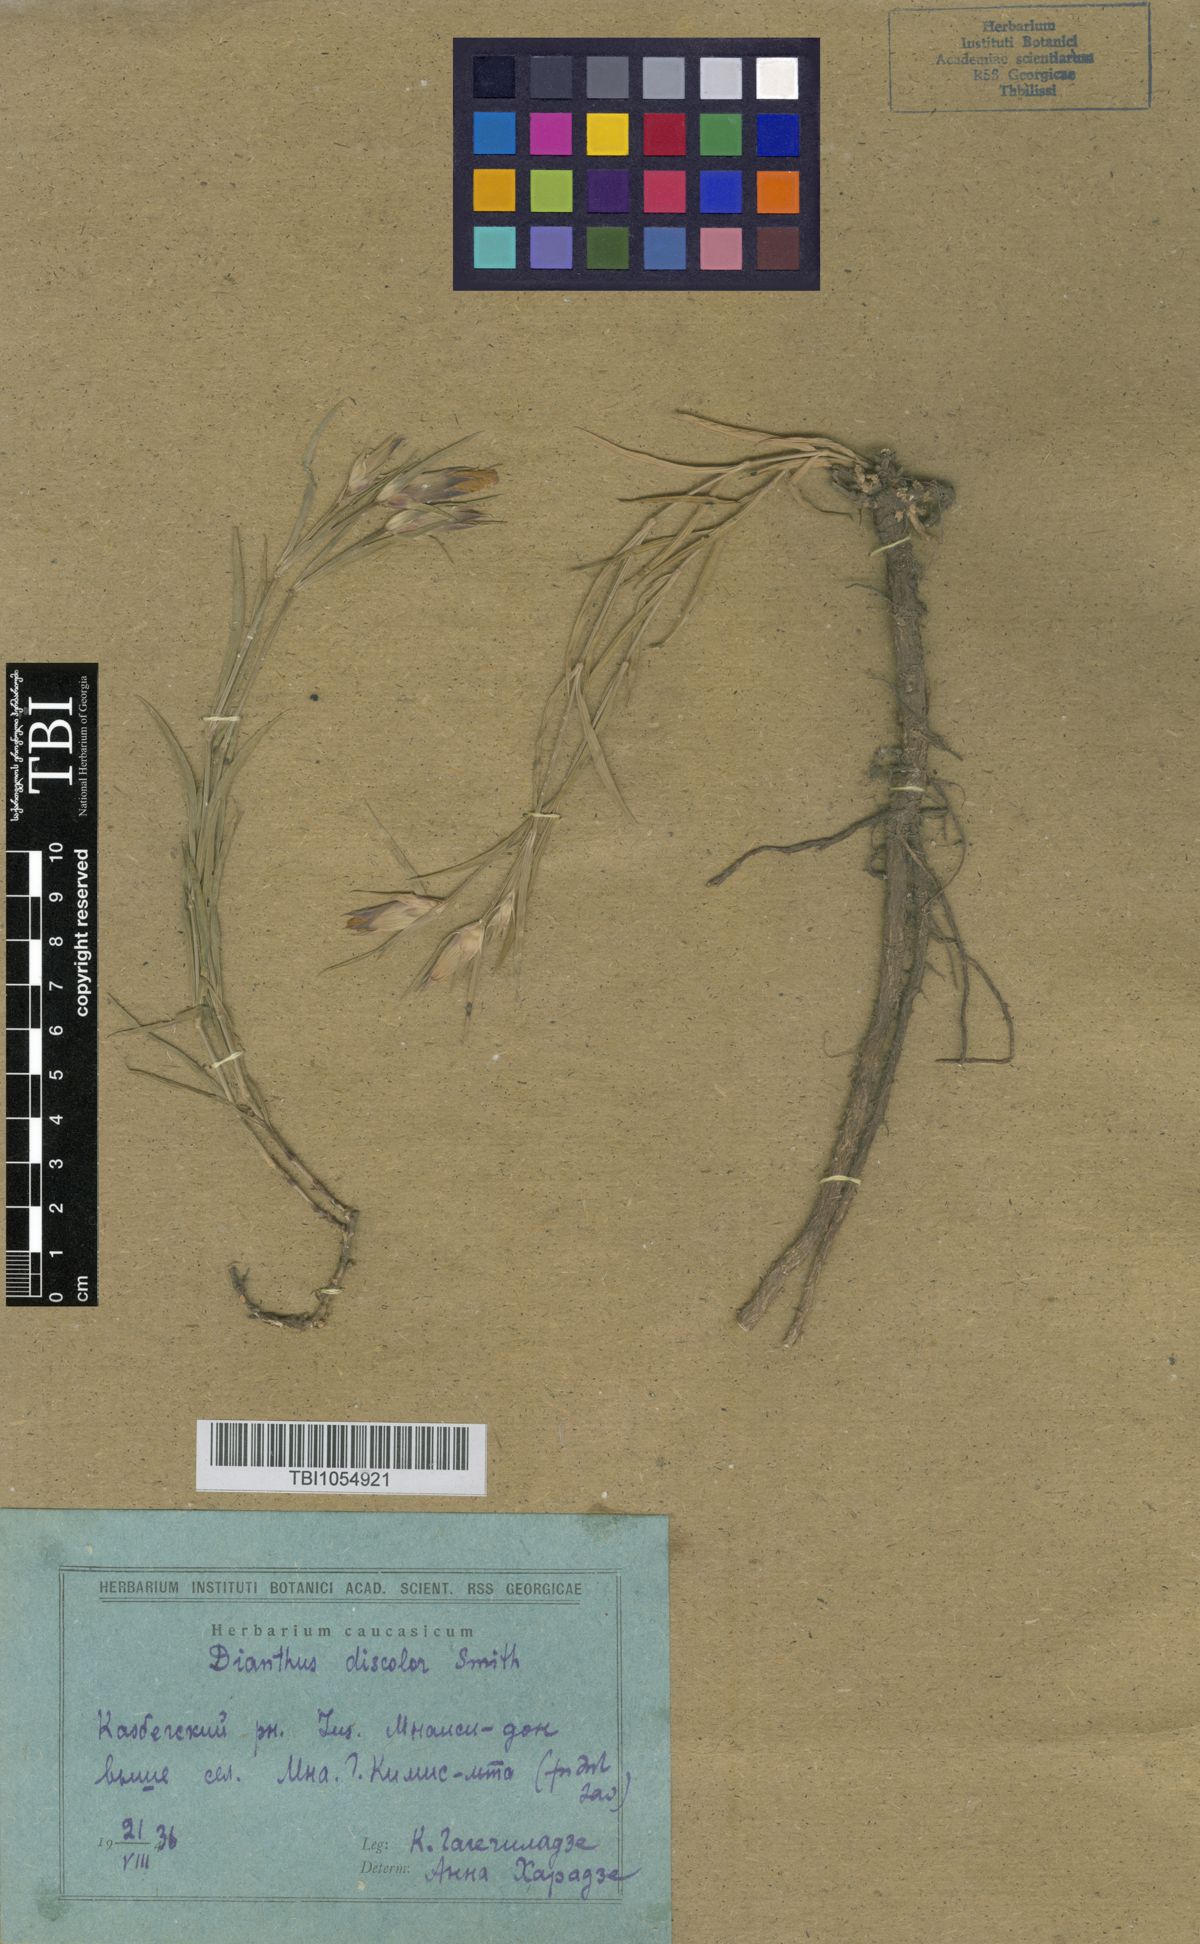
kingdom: Plantae
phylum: Tracheophyta
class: Magnoliopsida
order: Caryophyllales
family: Caryophyllaceae
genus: Dianthus
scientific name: Dianthus caucaseus
